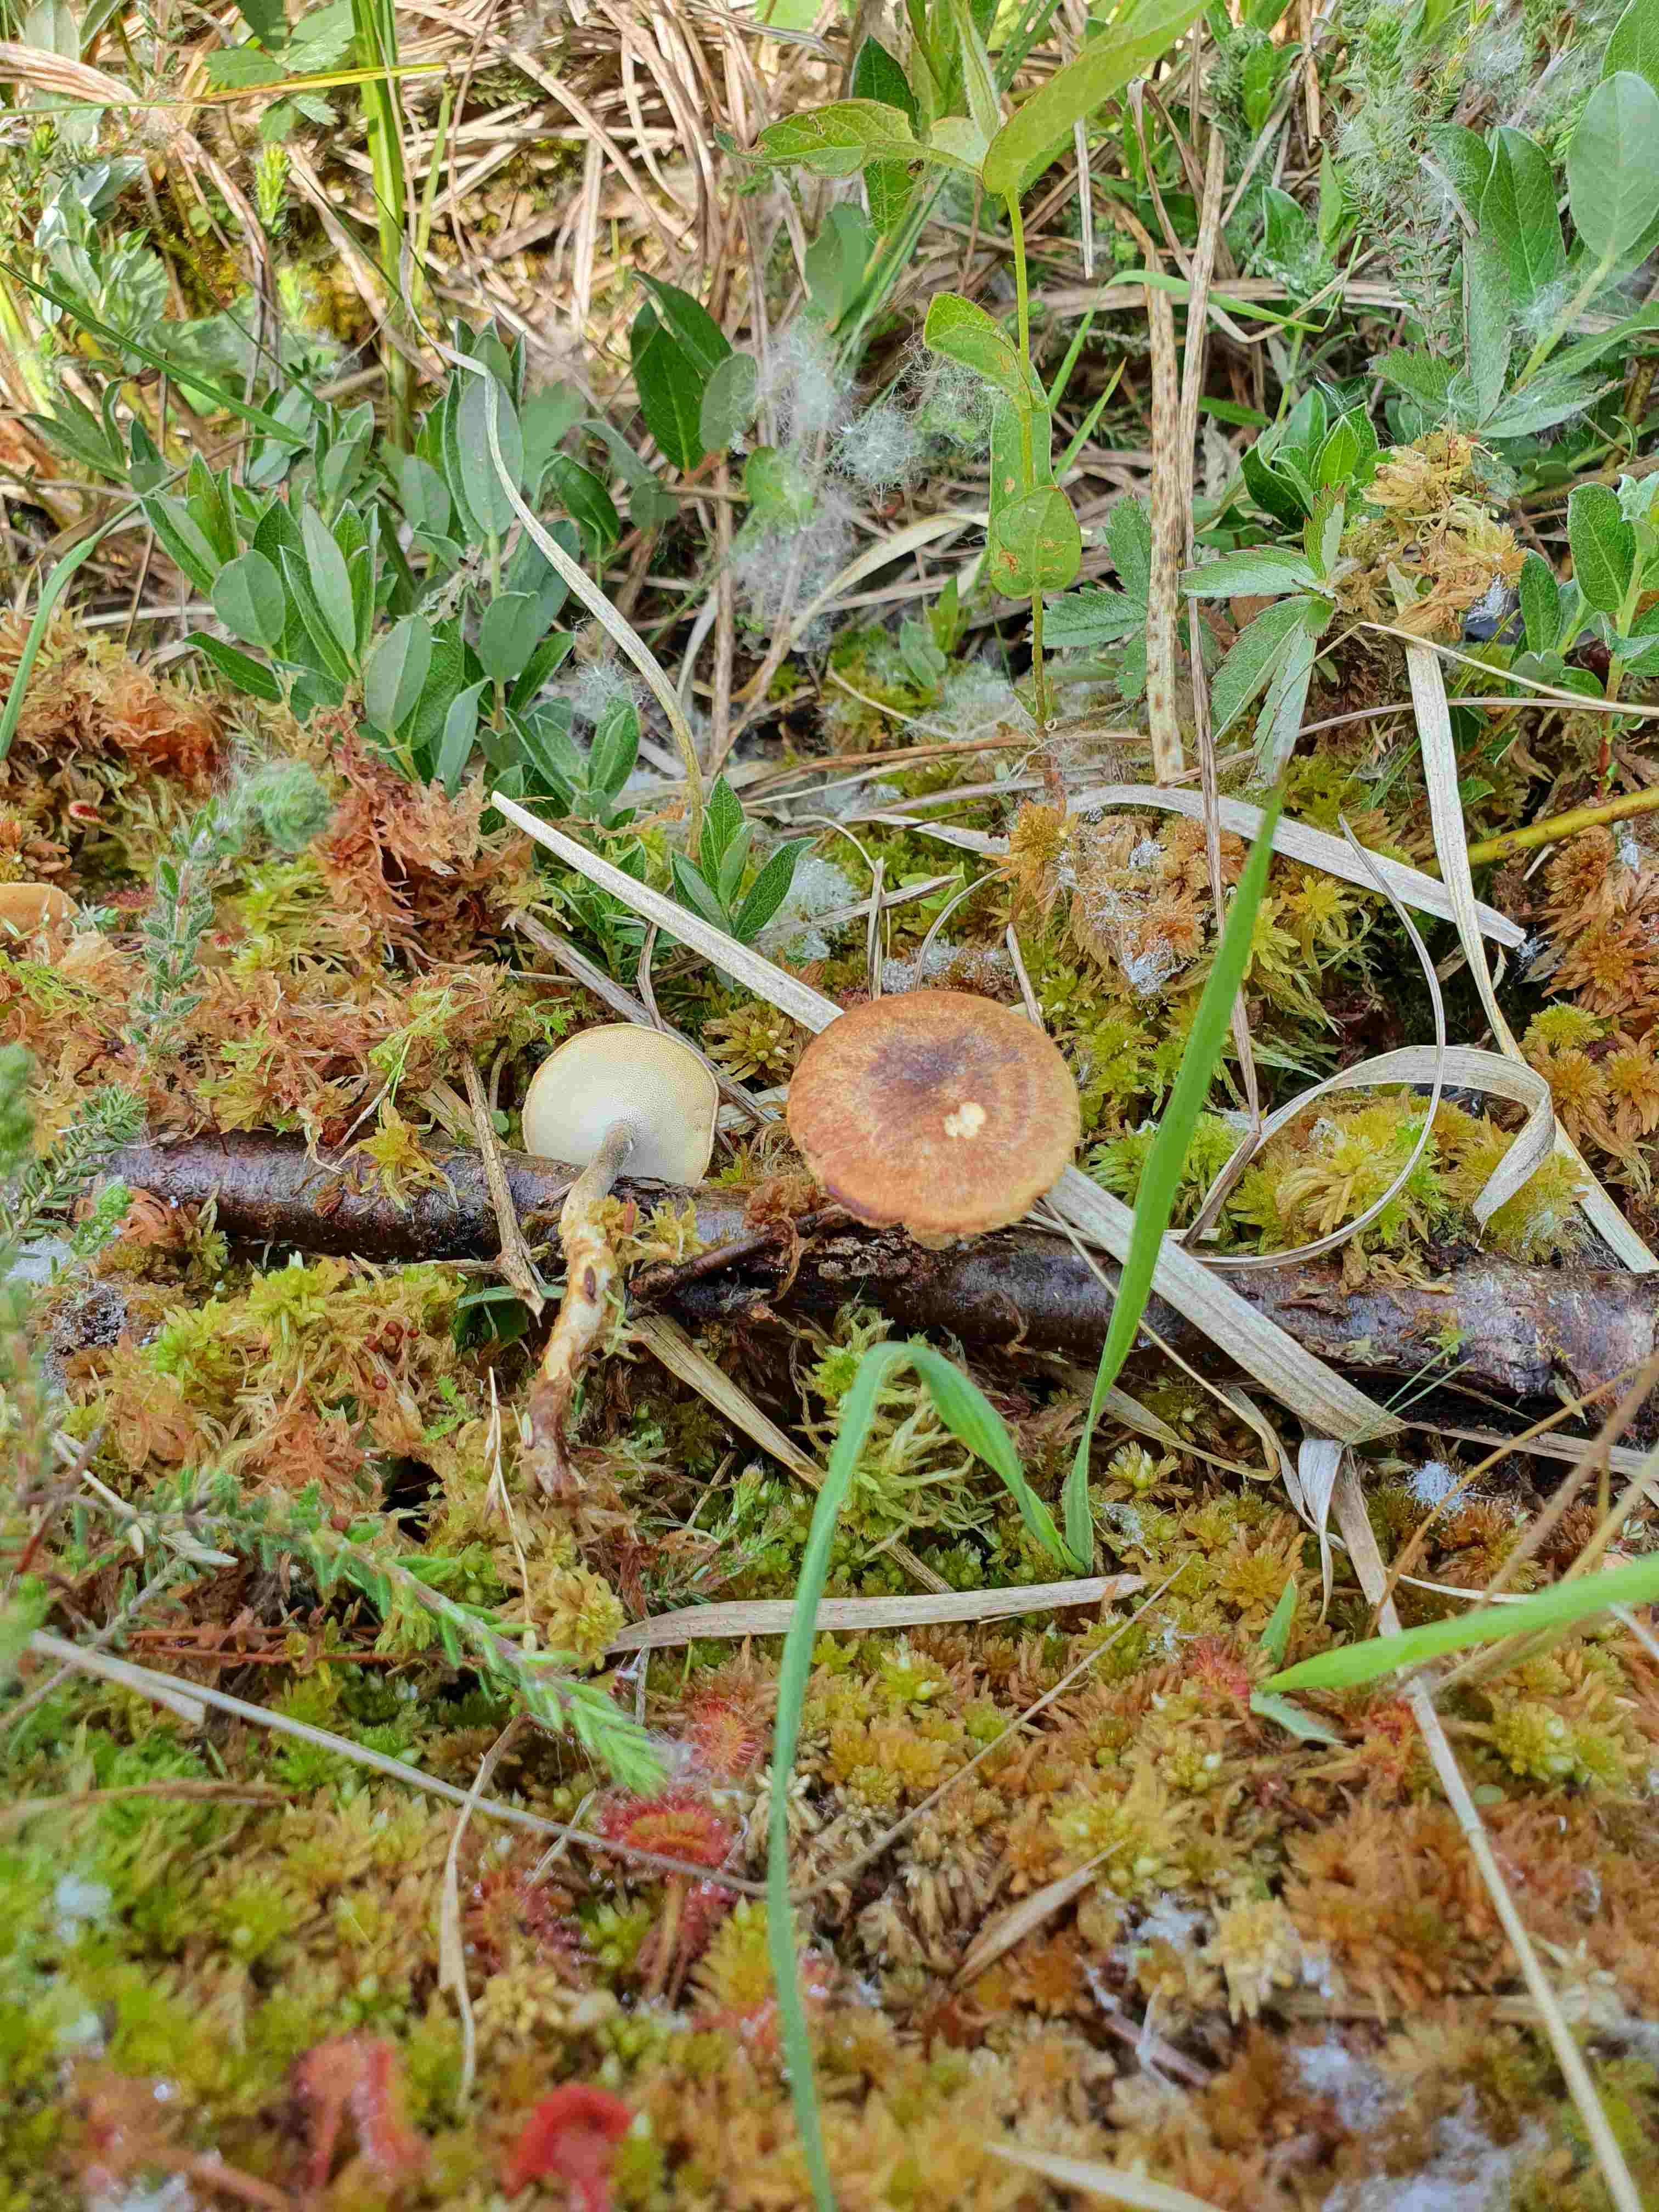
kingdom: Fungi
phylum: Basidiomycota
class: Agaricomycetes
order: Polyporales
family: Polyporaceae
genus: Lentinus
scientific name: Lentinus substrictus
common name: forårs-stilkporesvamp
